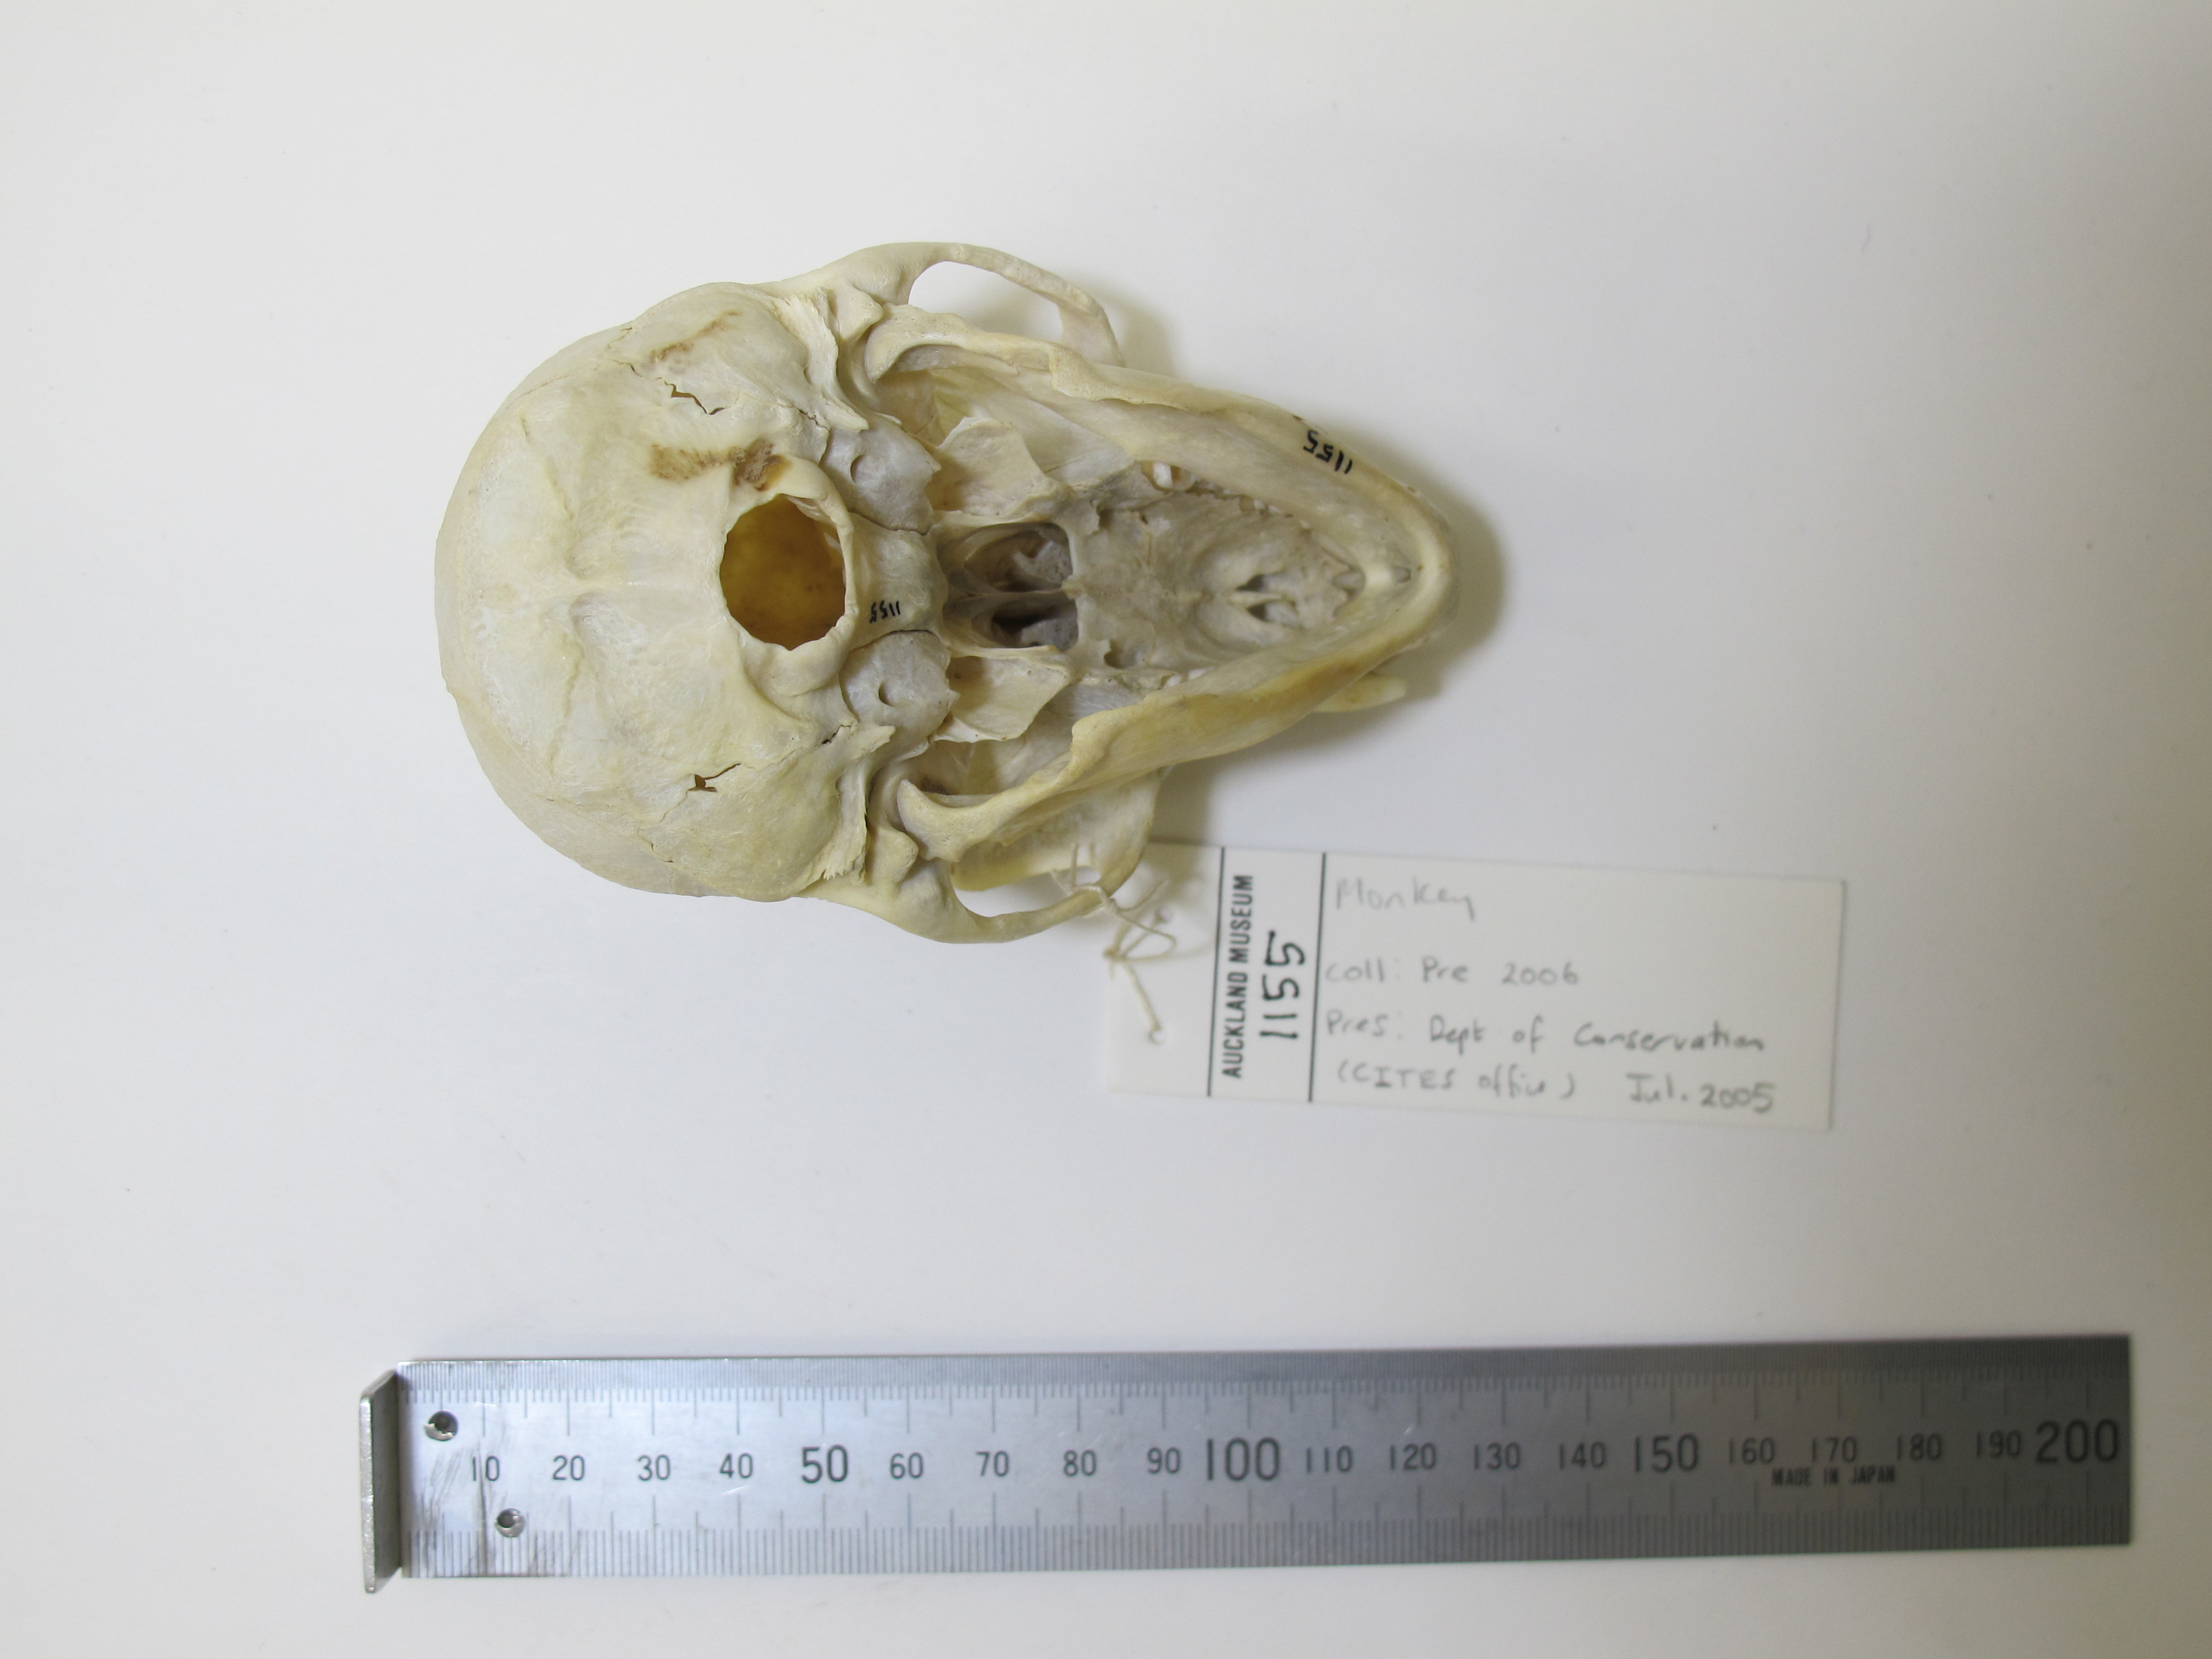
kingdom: Animalia
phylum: Chordata
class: Mammalia
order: Primates
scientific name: Primates
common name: Primates
